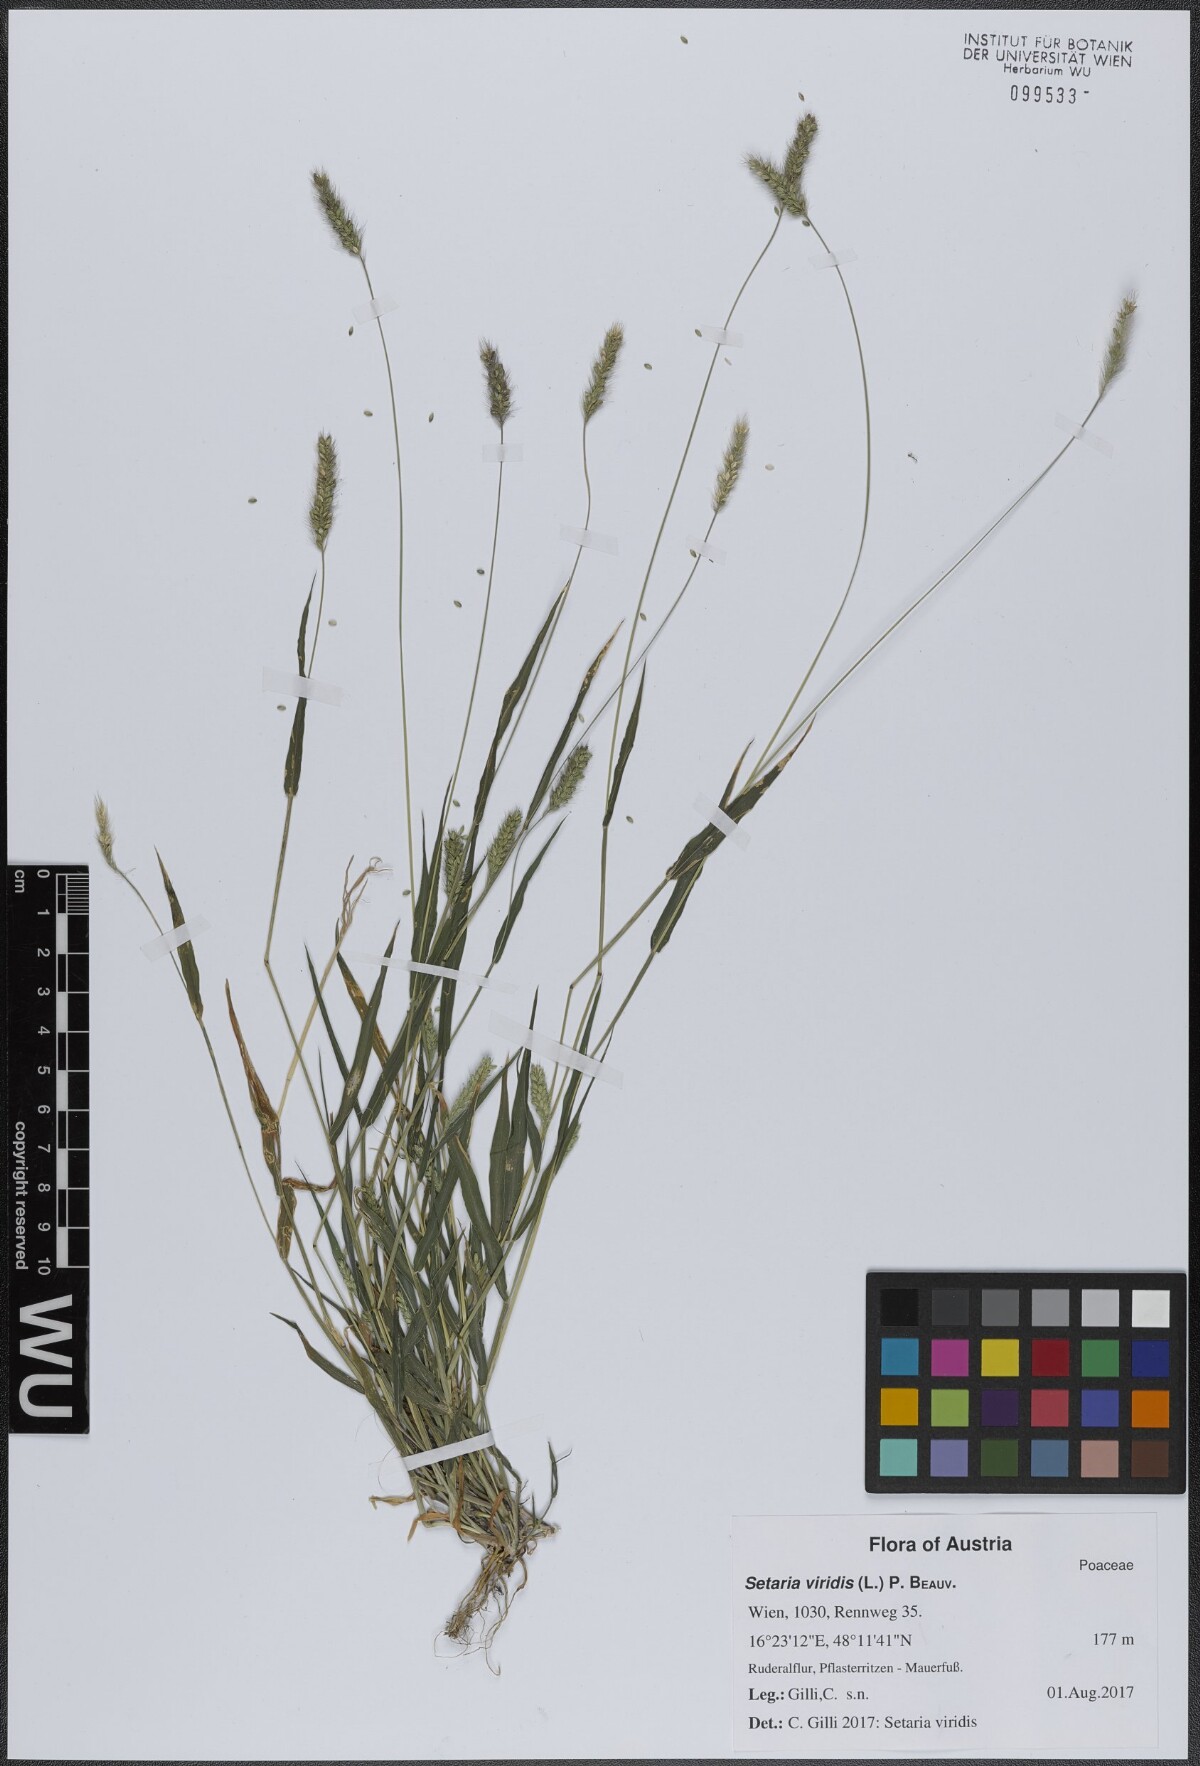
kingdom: Plantae
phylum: Tracheophyta
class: Liliopsida
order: Poales
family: Poaceae
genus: Setaria
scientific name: Setaria viridis
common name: Green bristlegrass
